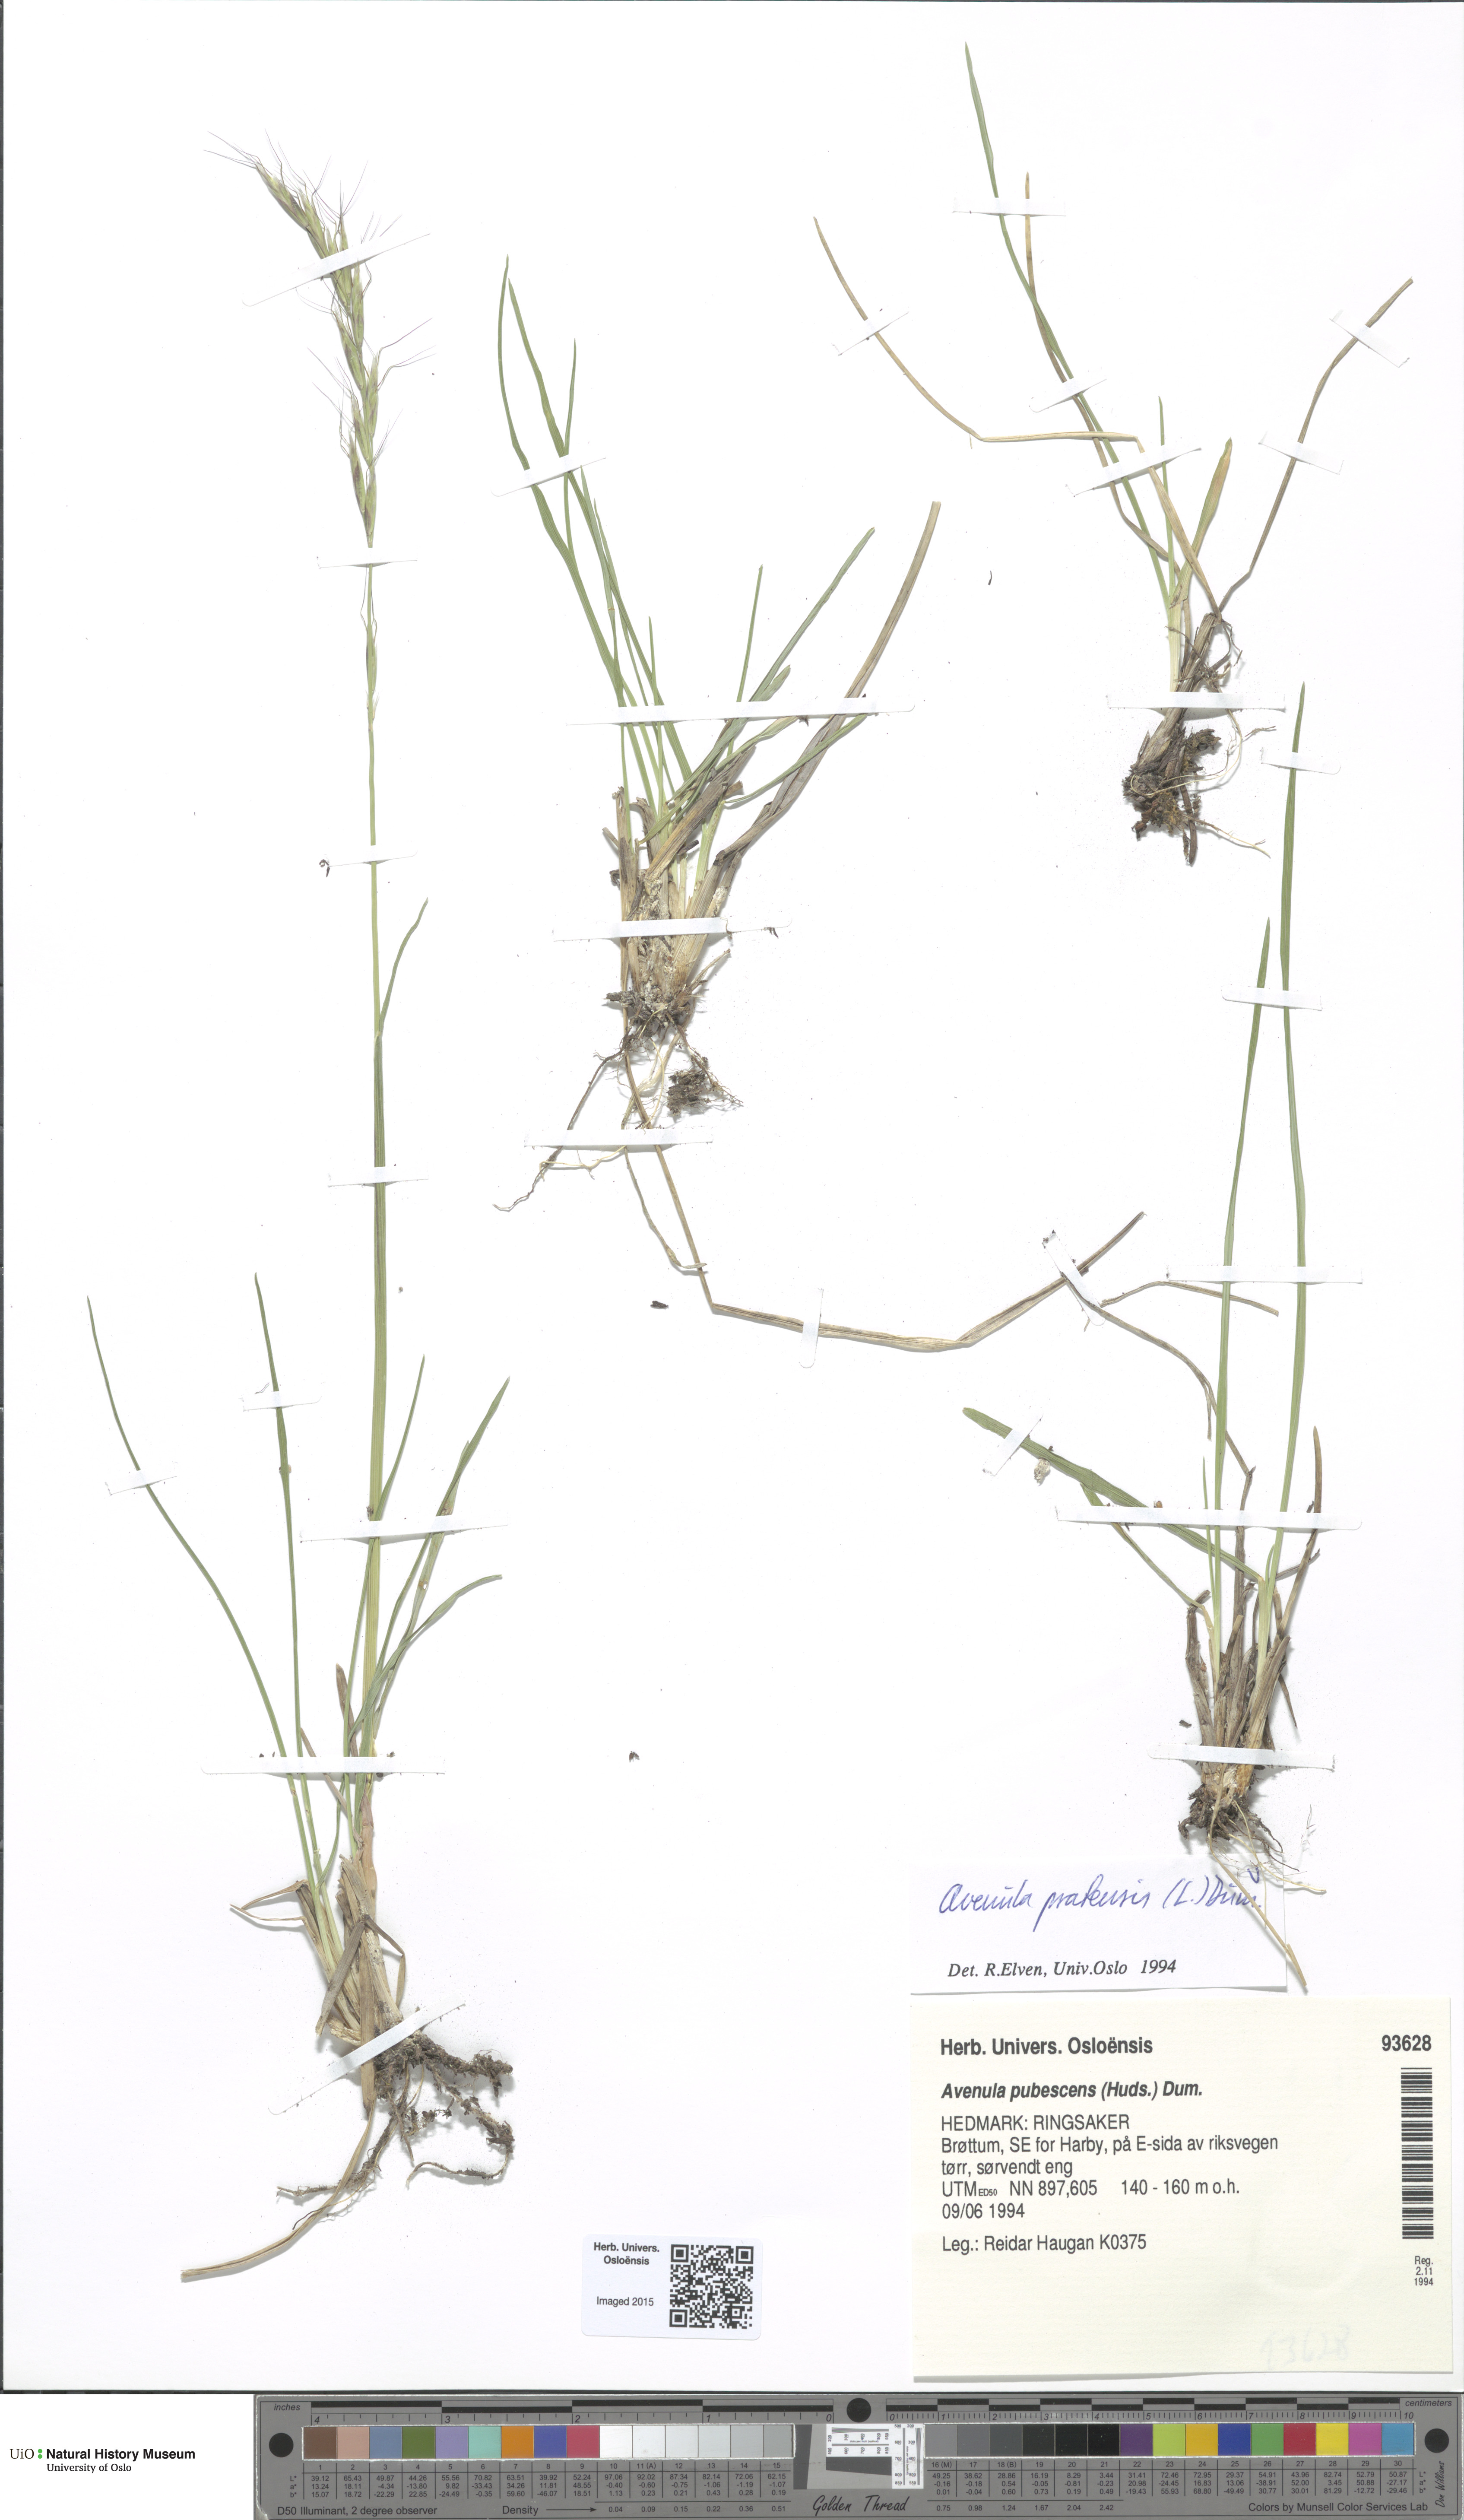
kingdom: Plantae
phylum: Tracheophyta
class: Liliopsida
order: Poales
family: Poaceae
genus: Helictochloa
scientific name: Helictochloa pratensis
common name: Meadow oat grass
